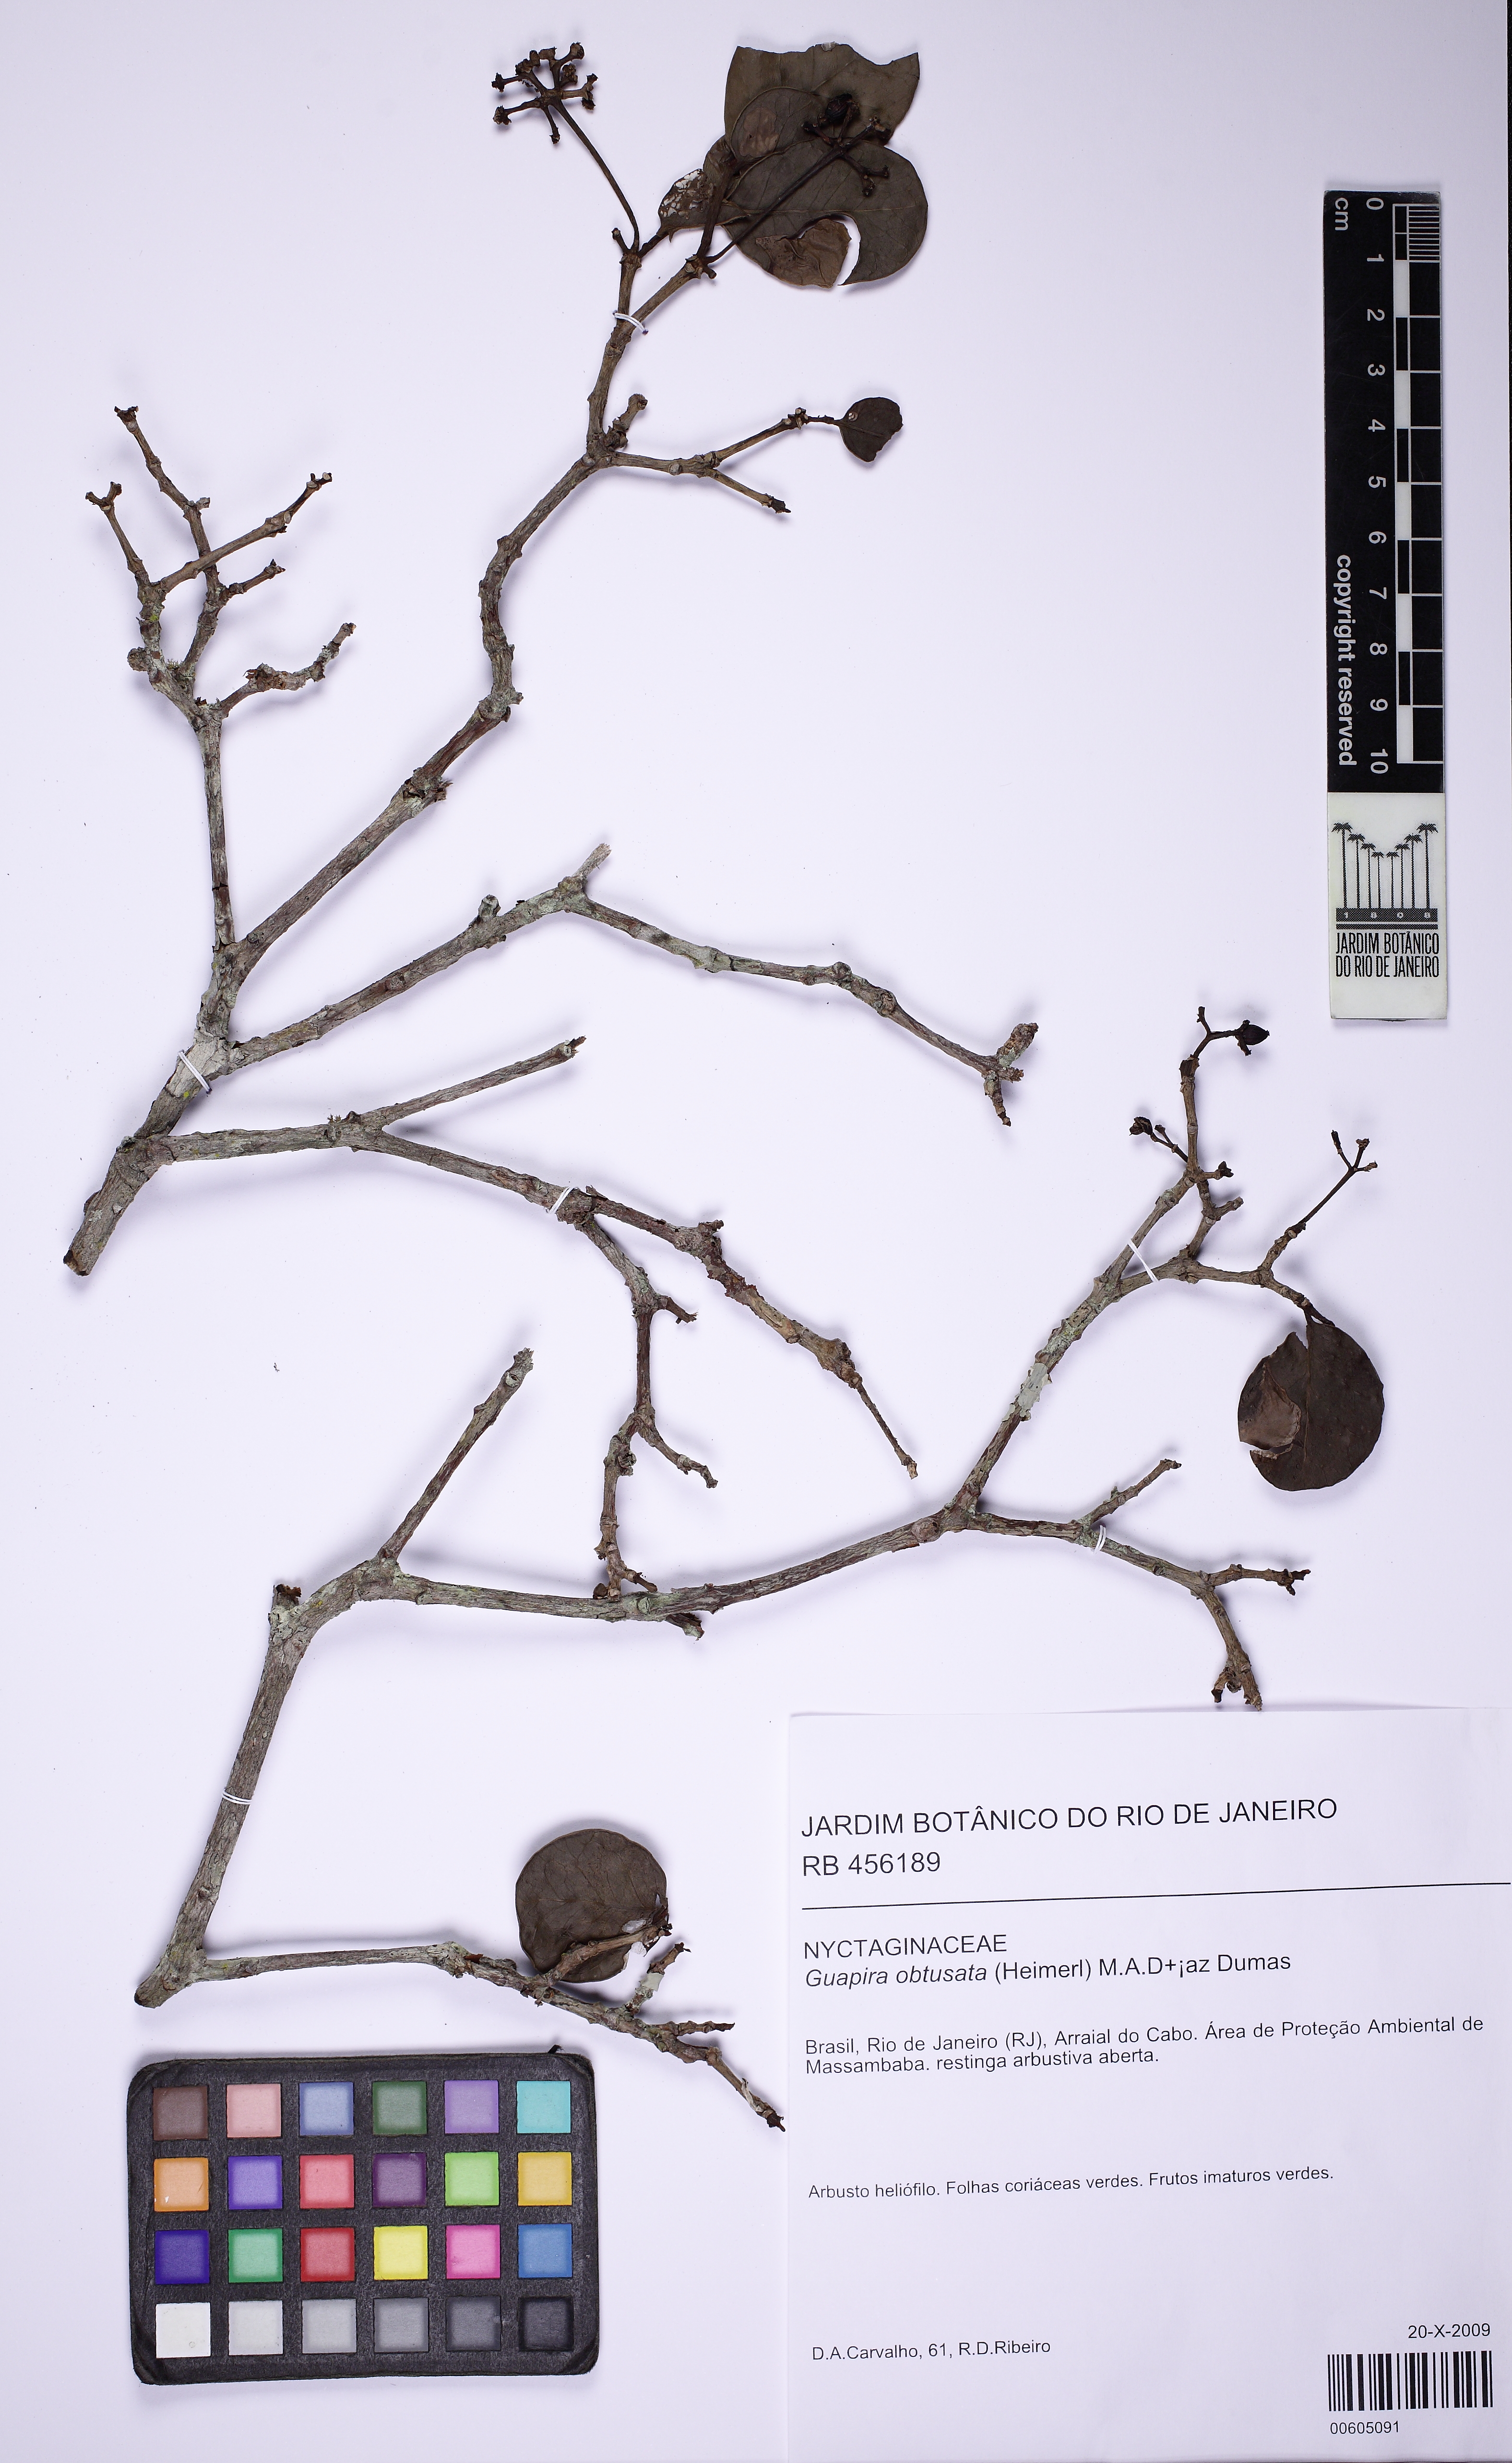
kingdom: Plantae
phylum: Tracheophyta
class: Magnoliopsida
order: Caryophyllales
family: Nyctaginaceae
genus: Guapira
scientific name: Guapira obtusata
